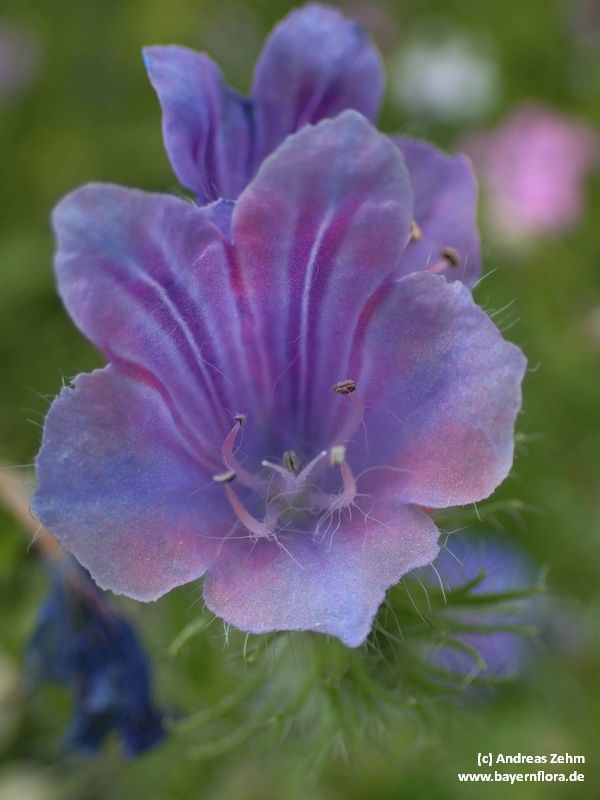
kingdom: Plantae
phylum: Tracheophyta
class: Magnoliopsida
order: Boraginales
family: Boraginaceae
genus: Echium
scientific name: Echium plantagineum
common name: Purple viper's-bugloss
